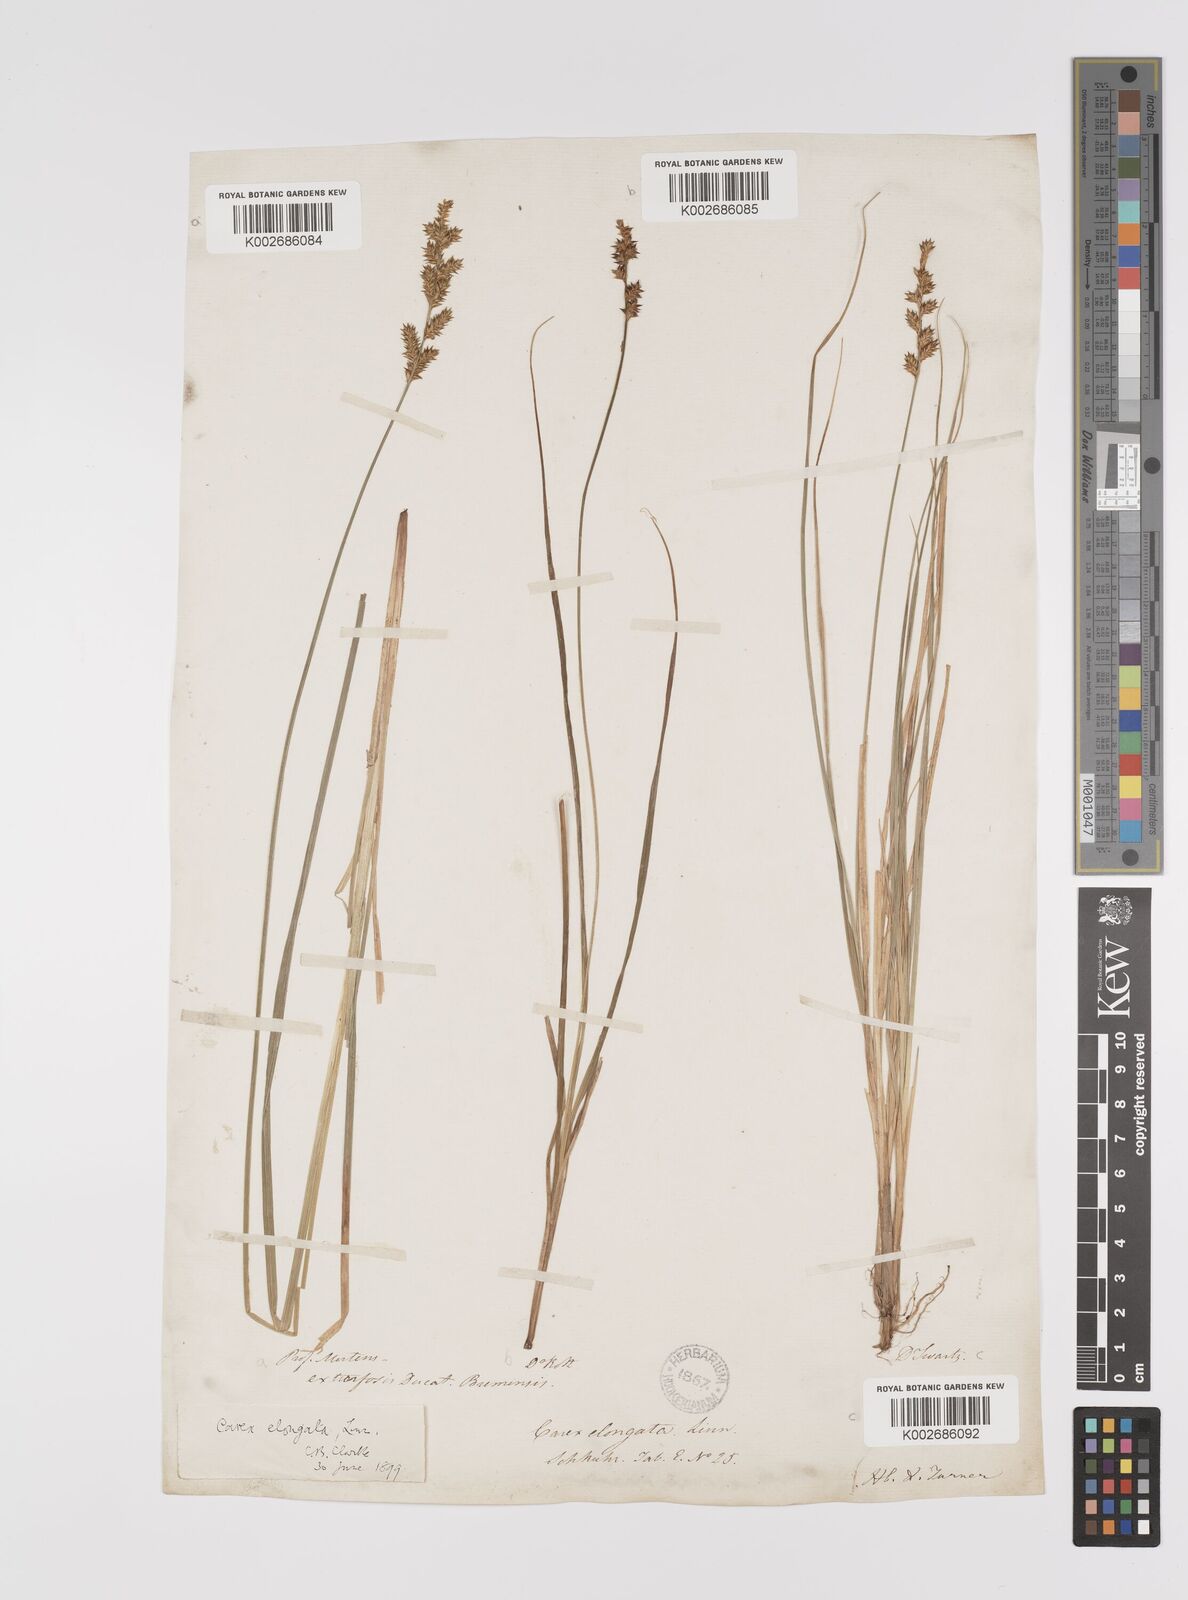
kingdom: Plantae
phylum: Tracheophyta
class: Liliopsida
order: Poales
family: Cyperaceae
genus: Carex
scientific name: Carex elongata
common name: Elongated sedge
